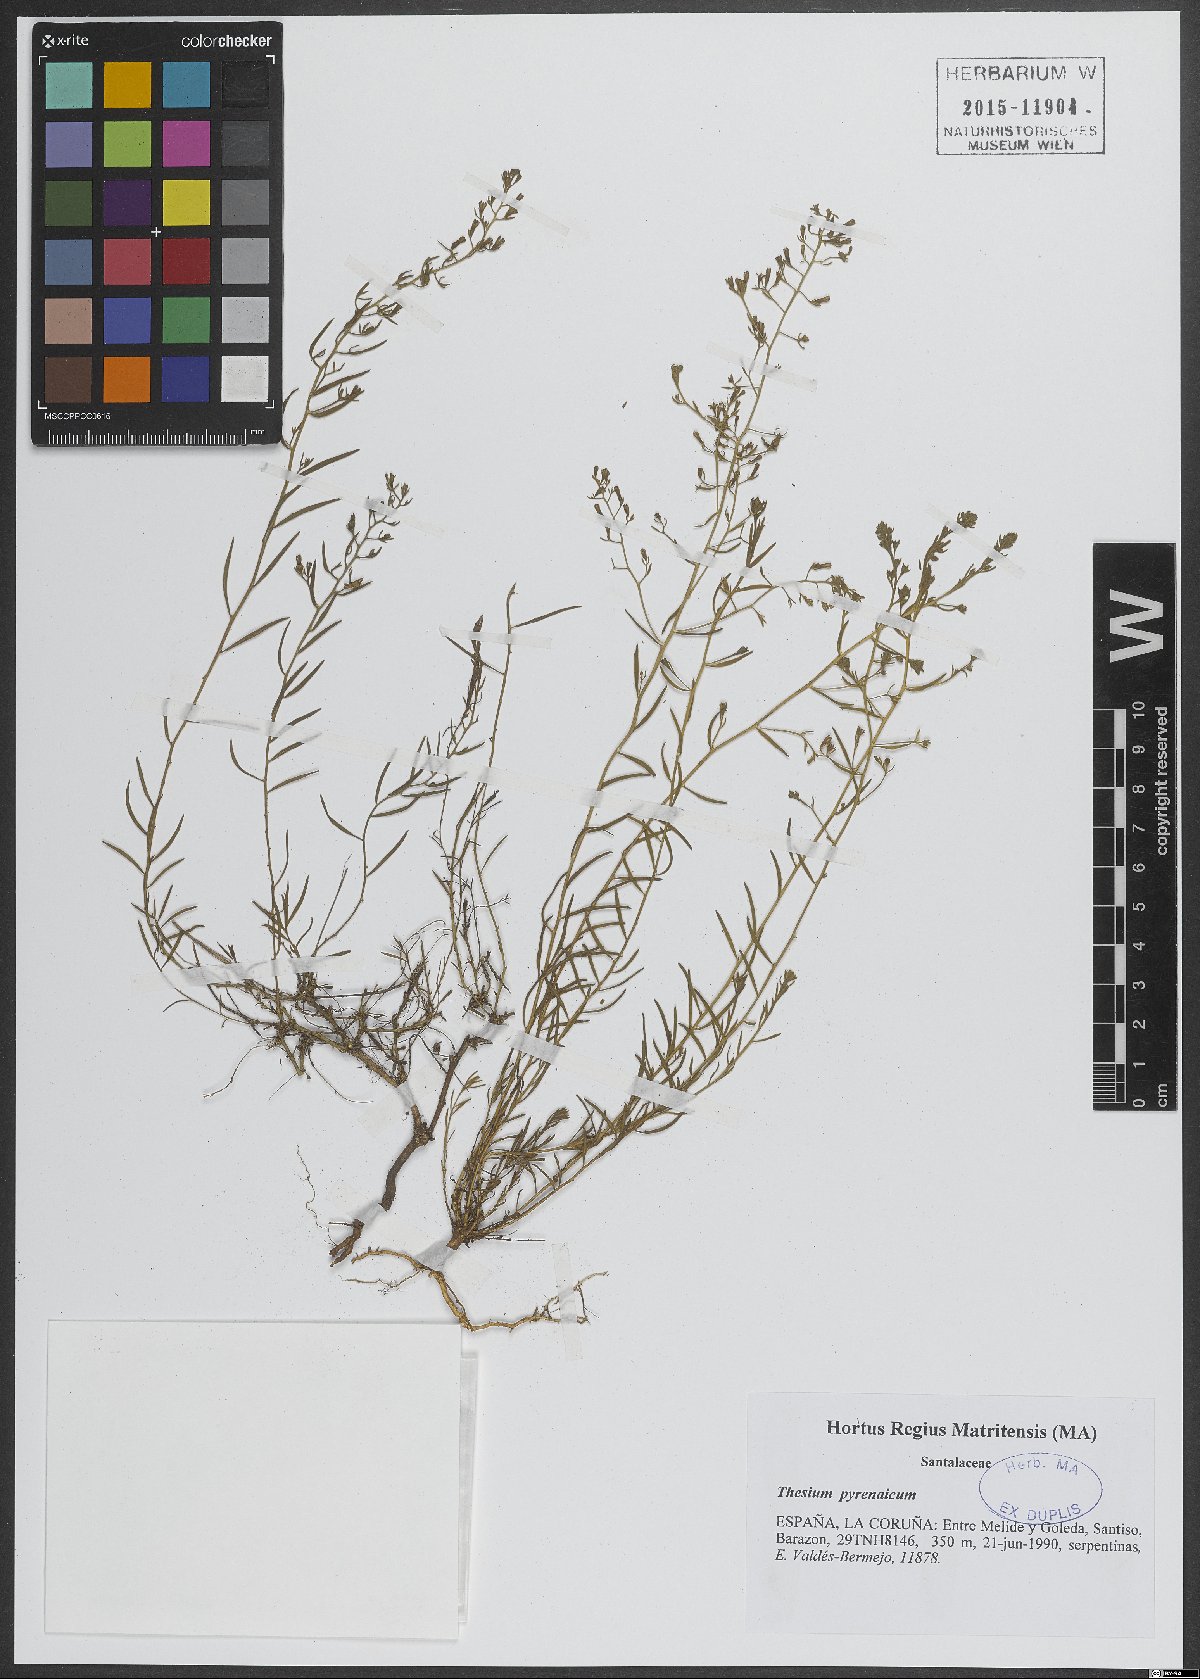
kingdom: Plantae
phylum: Tracheophyta
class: Magnoliopsida
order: Santalales
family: Thesiaceae
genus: Thesium
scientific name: Thesium pyrenaicum
